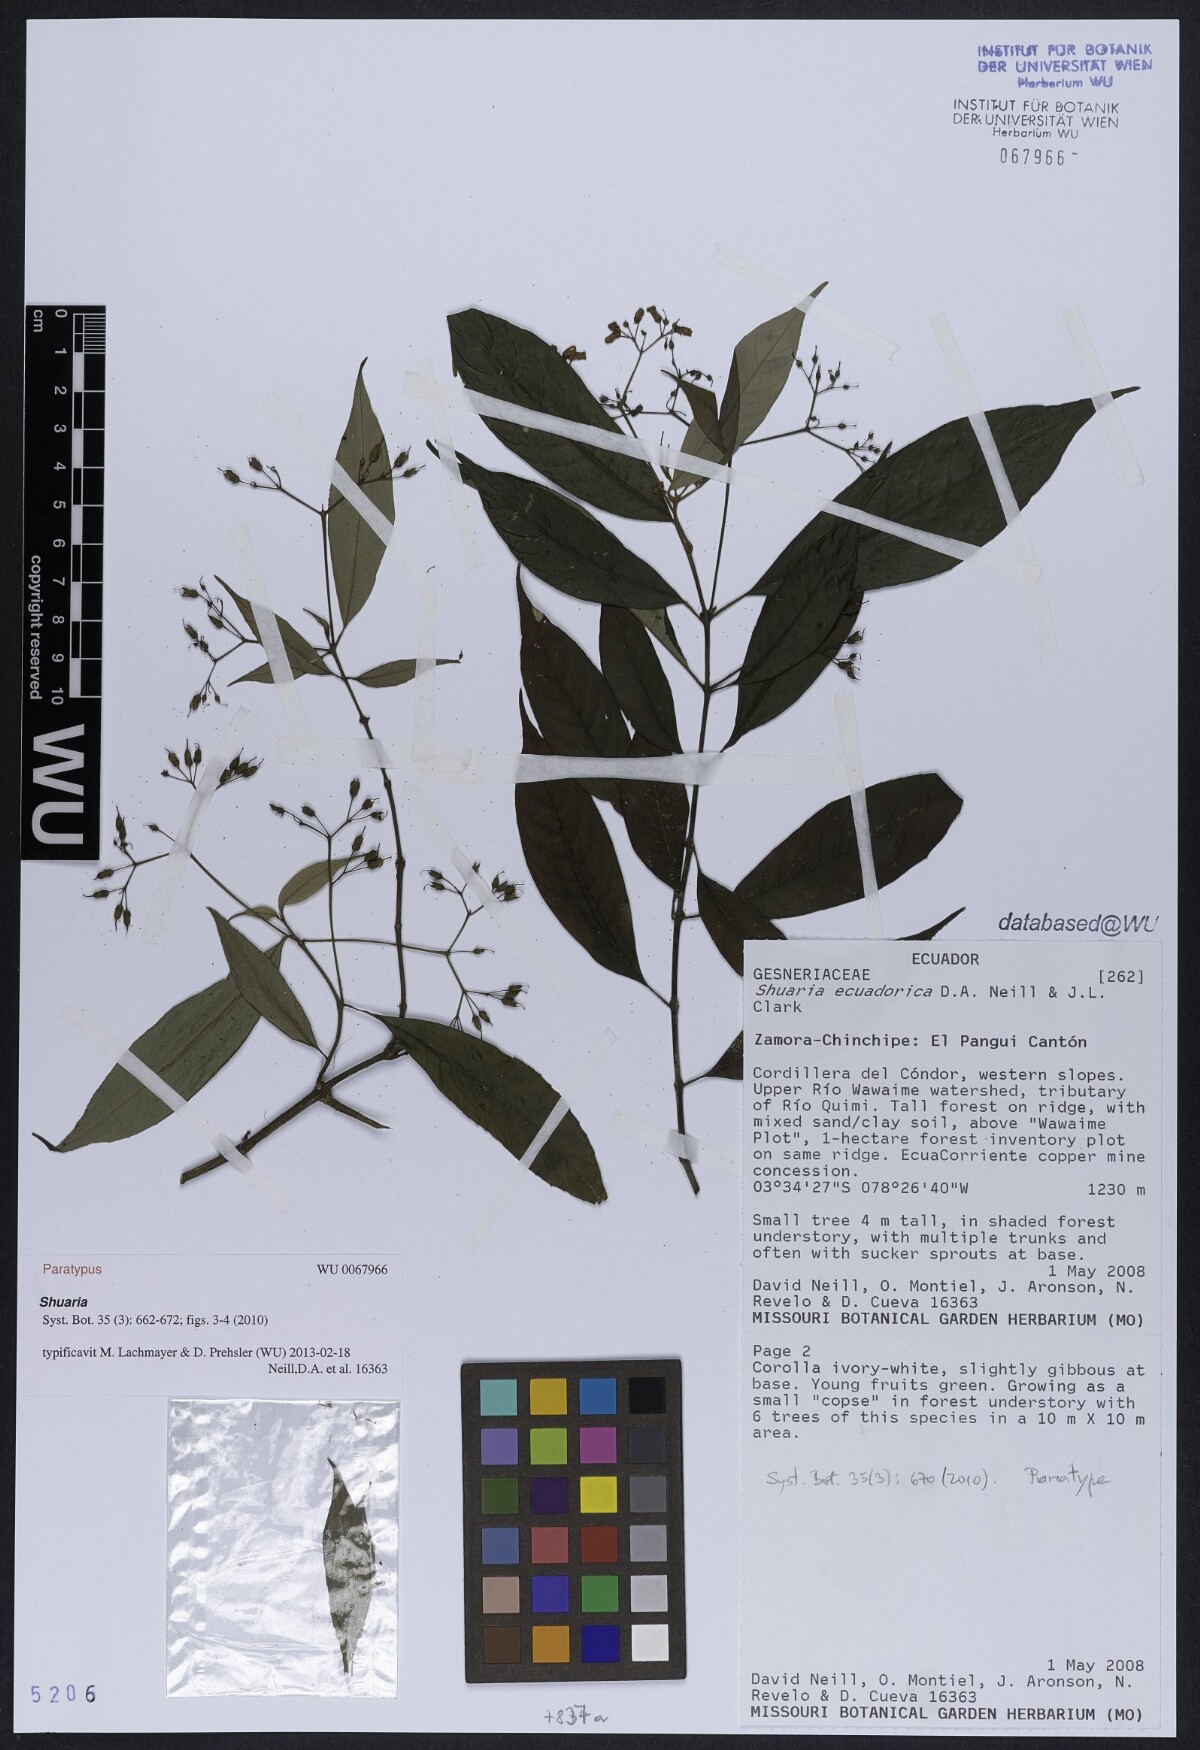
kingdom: Plantae
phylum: Tracheophyta
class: Magnoliopsida
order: Lamiales
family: Gesneriaceae
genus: Shuaria
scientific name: Shuaria ecuadorica
